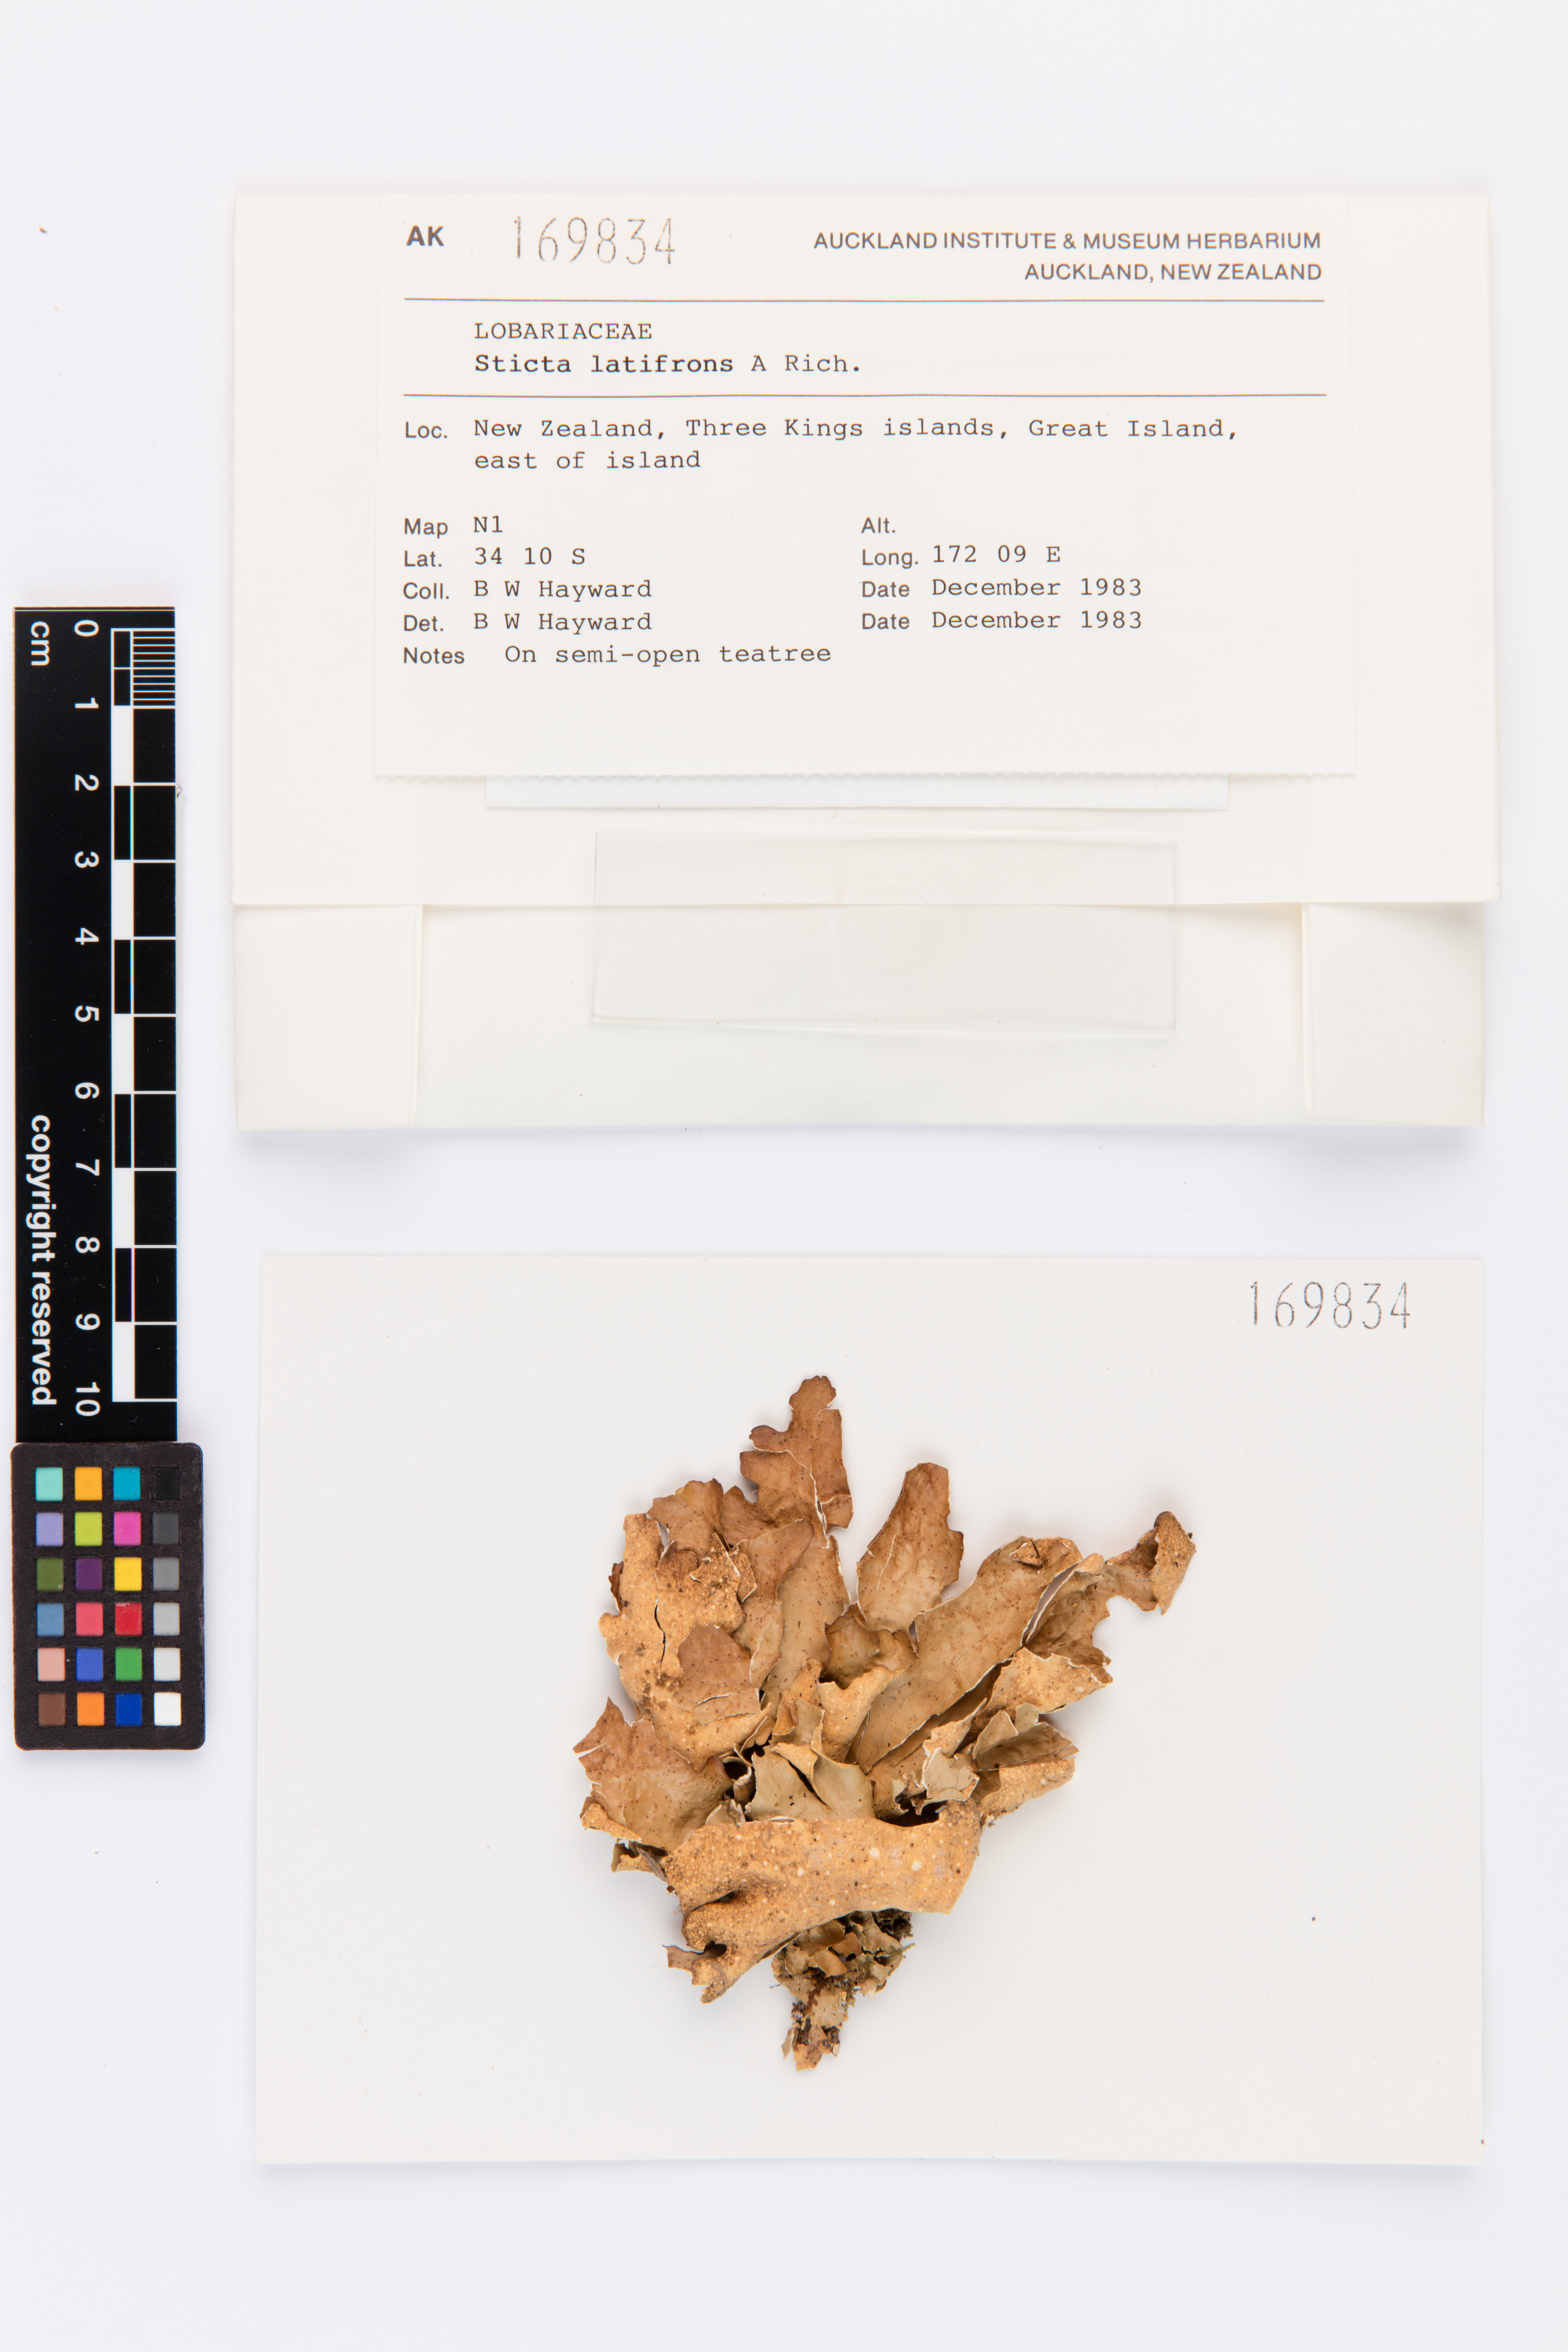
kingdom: Fungi
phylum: Ascomycota
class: Lecanoromycetes
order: Peltigerales
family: Lobariaceae
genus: Sticta
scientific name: Sticta latifrons
